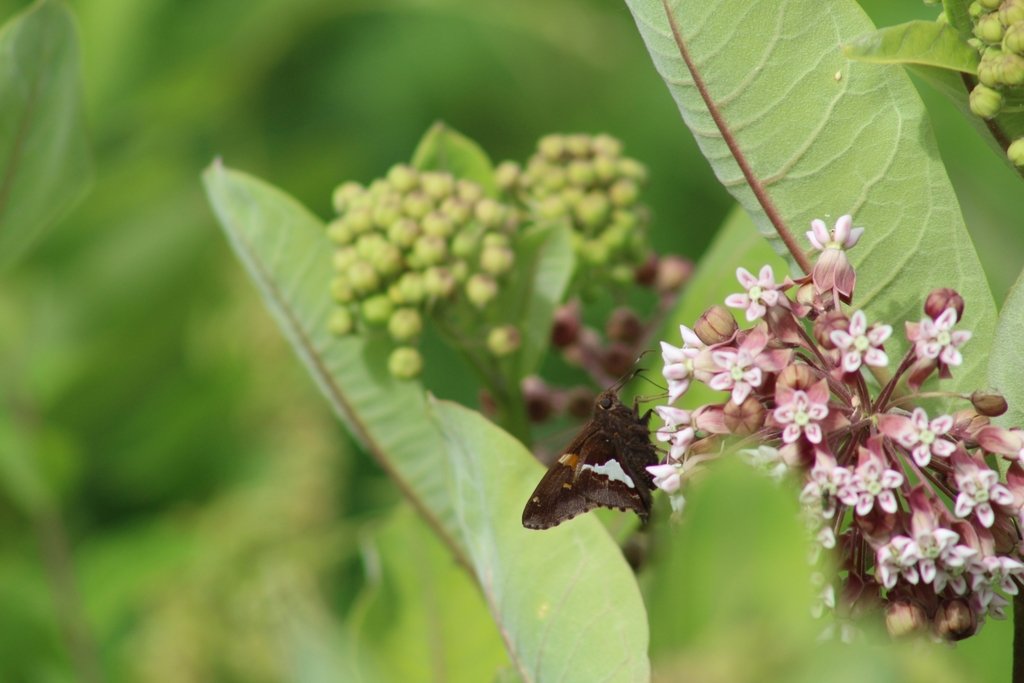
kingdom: Animalia
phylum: Arthropoda
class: Insecta
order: Lepidoptera
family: Hesperiidae
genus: Epargyreus
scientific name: Epargyreus clarus
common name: Silver-spotted Skipper
